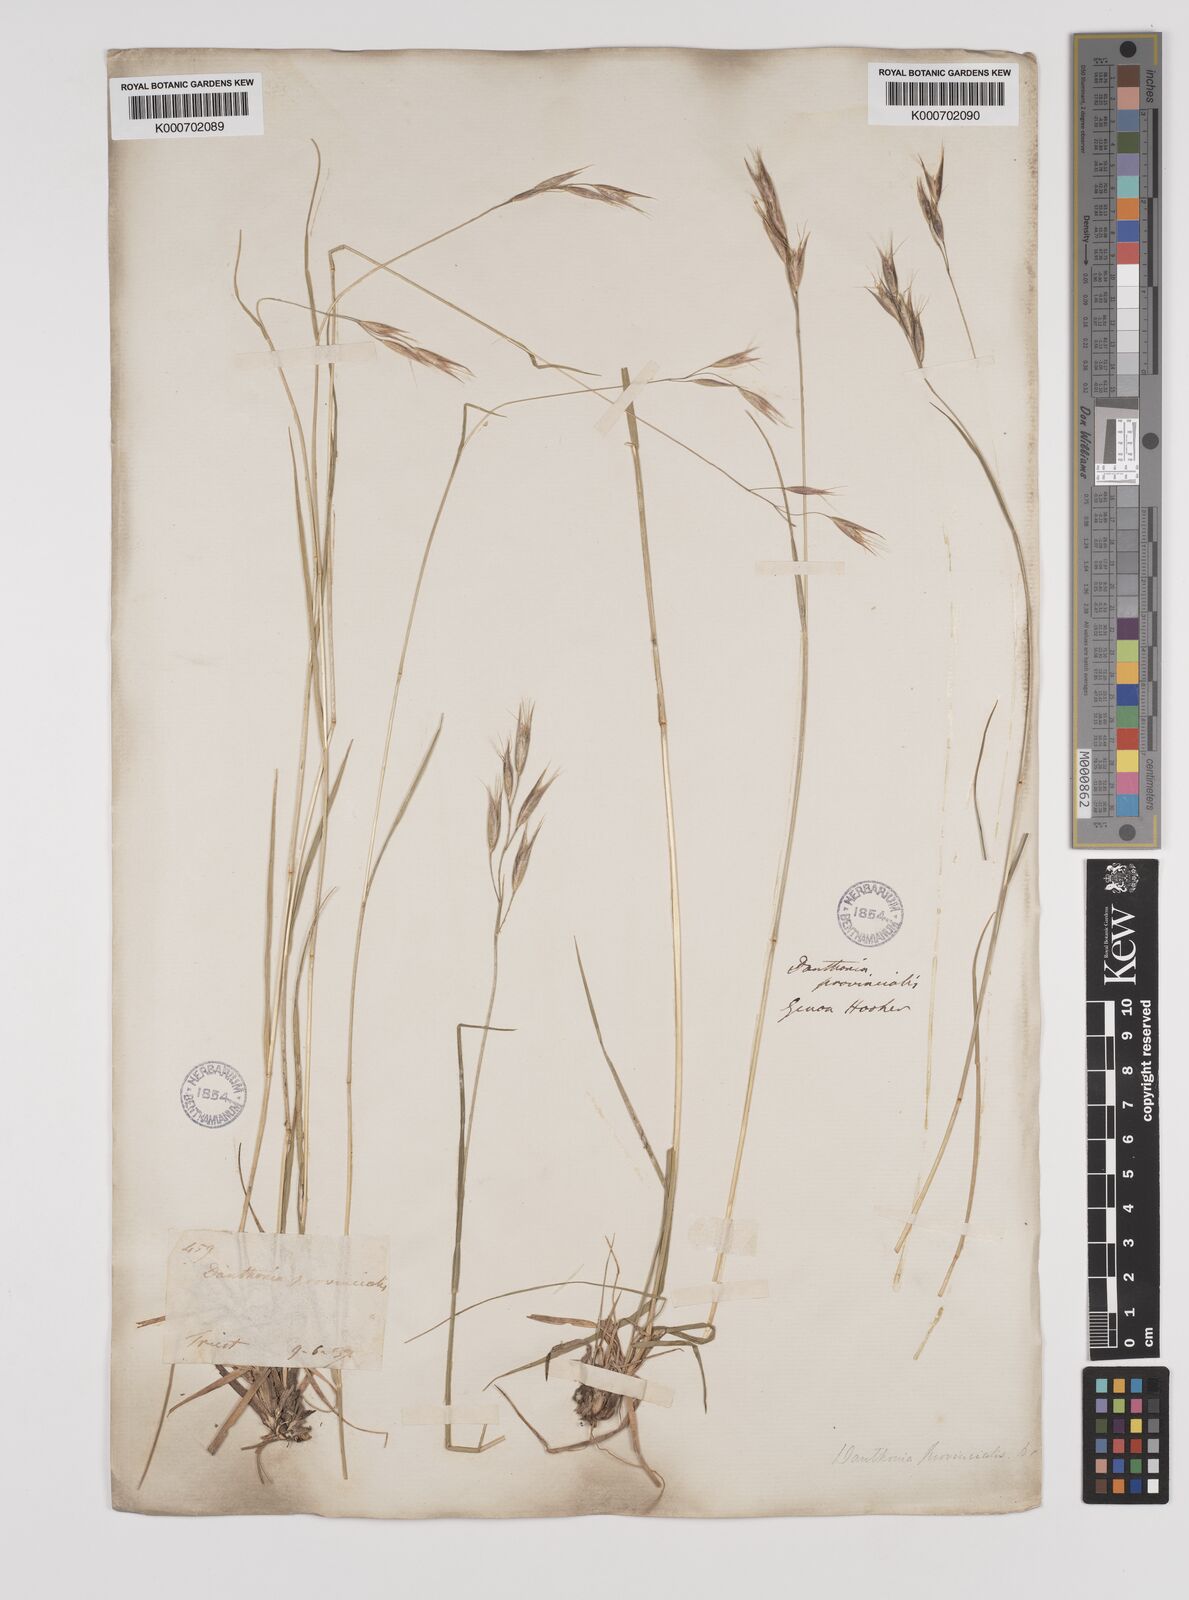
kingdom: Plantae
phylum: Tracheophyta
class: Liliopsida
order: Poales
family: Poaceae
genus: Danthonia
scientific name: Danthonia alpina
